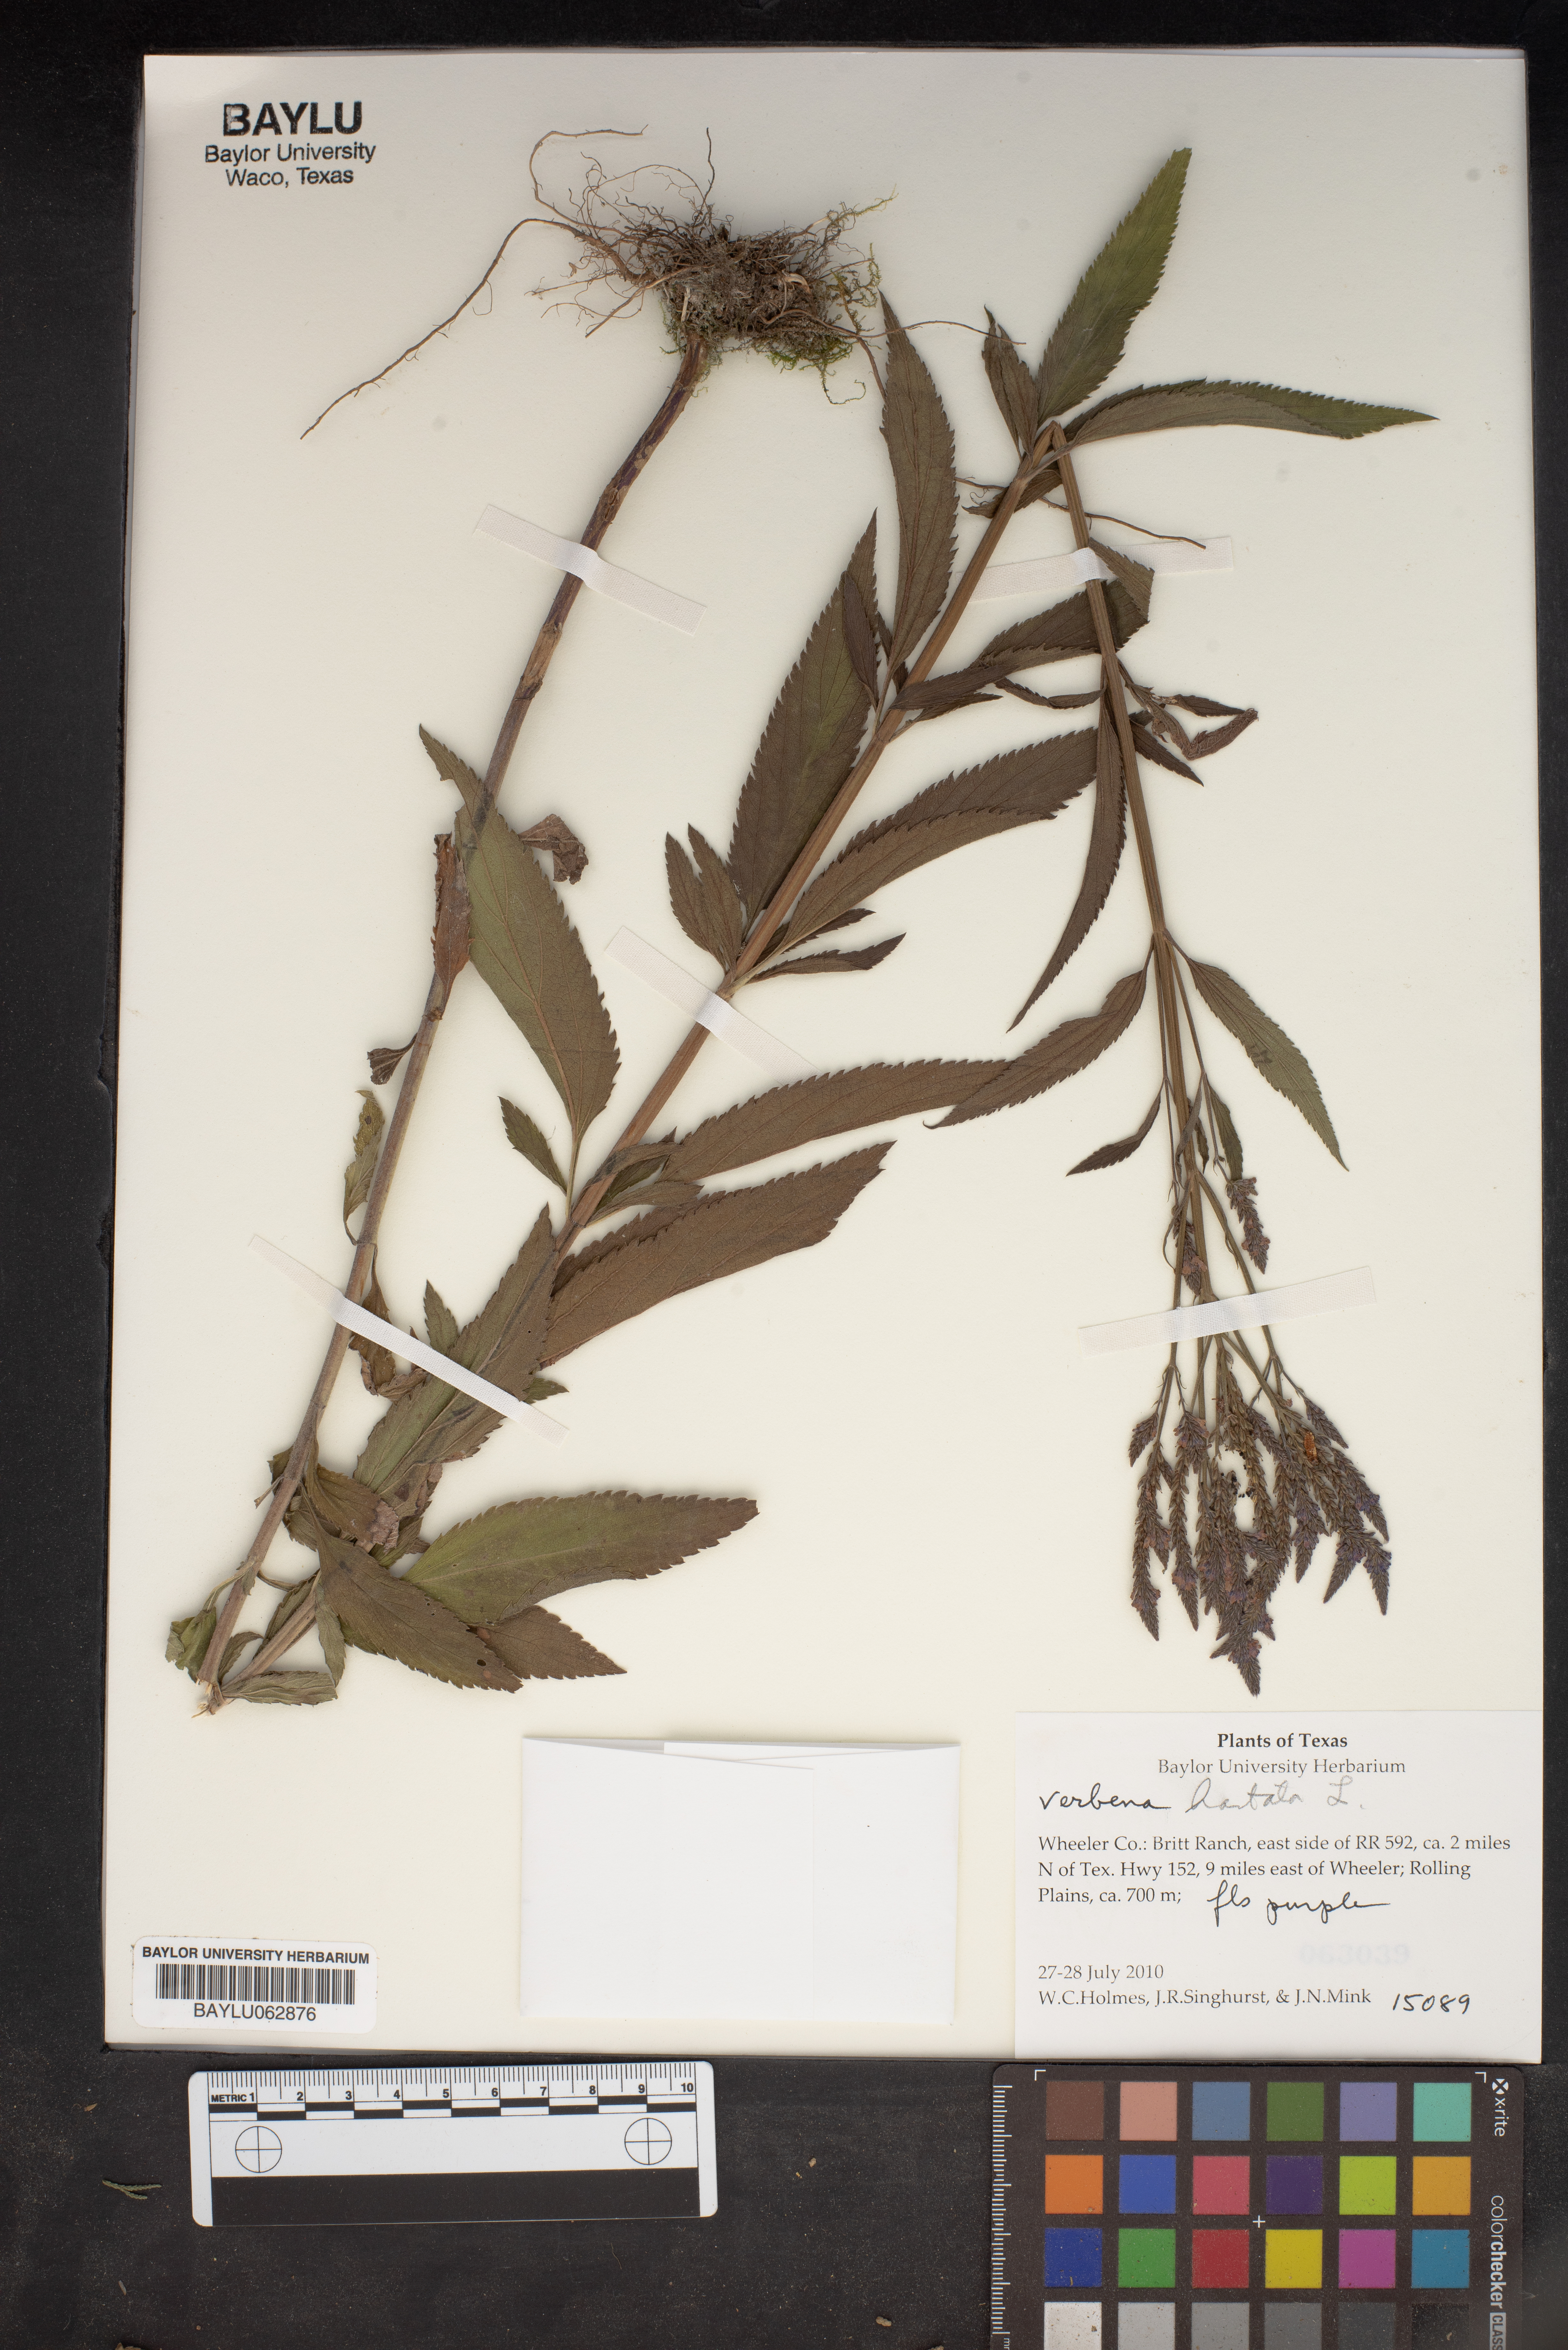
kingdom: Plantae
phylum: Tracheophyta
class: Magnoliopsida
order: Lamiales
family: Verbenaceae
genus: Verbena
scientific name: Verbena hastata
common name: American blue vervain
